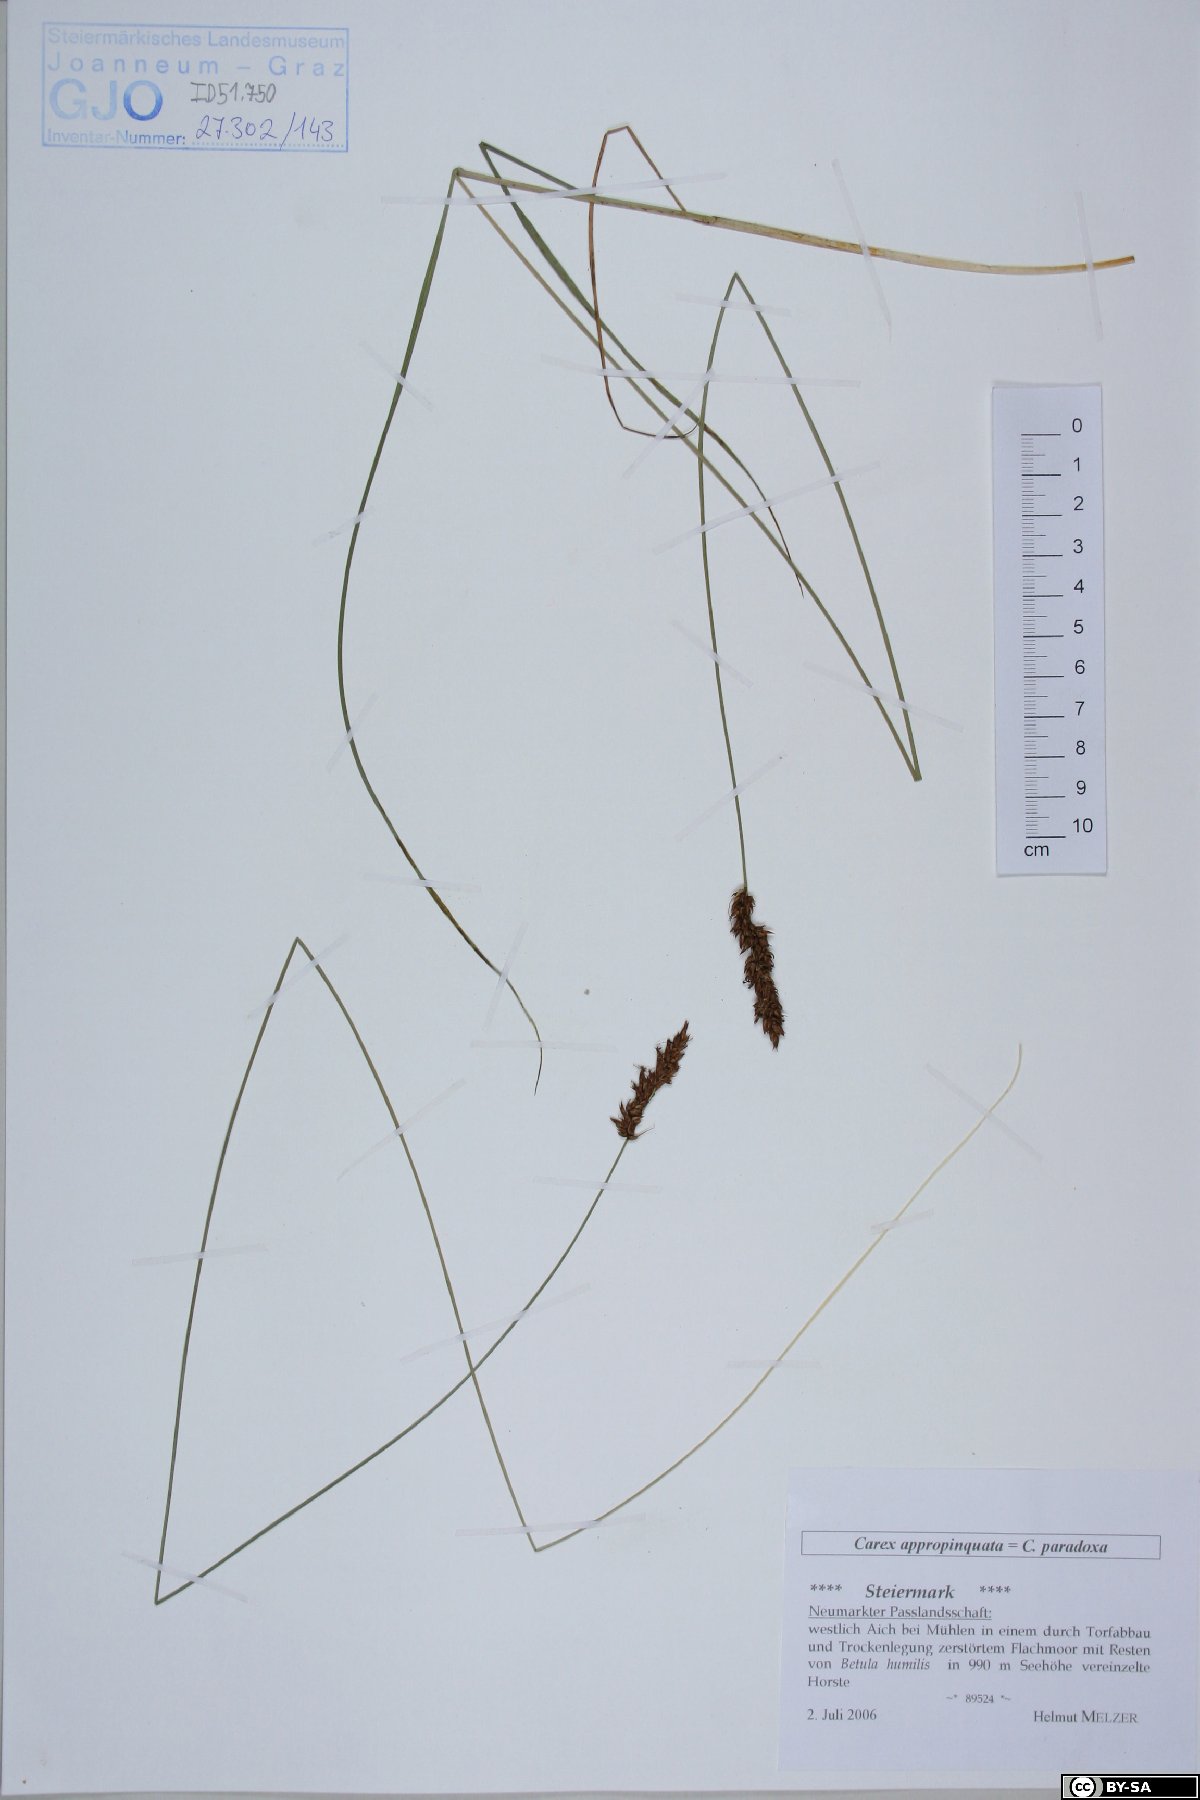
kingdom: Plantae
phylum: Tracheophyta
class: Liliopsida
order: Poales
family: Cyperaceae
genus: Carex
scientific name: Carex appropinquata
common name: Fibrous tussock-sedge
